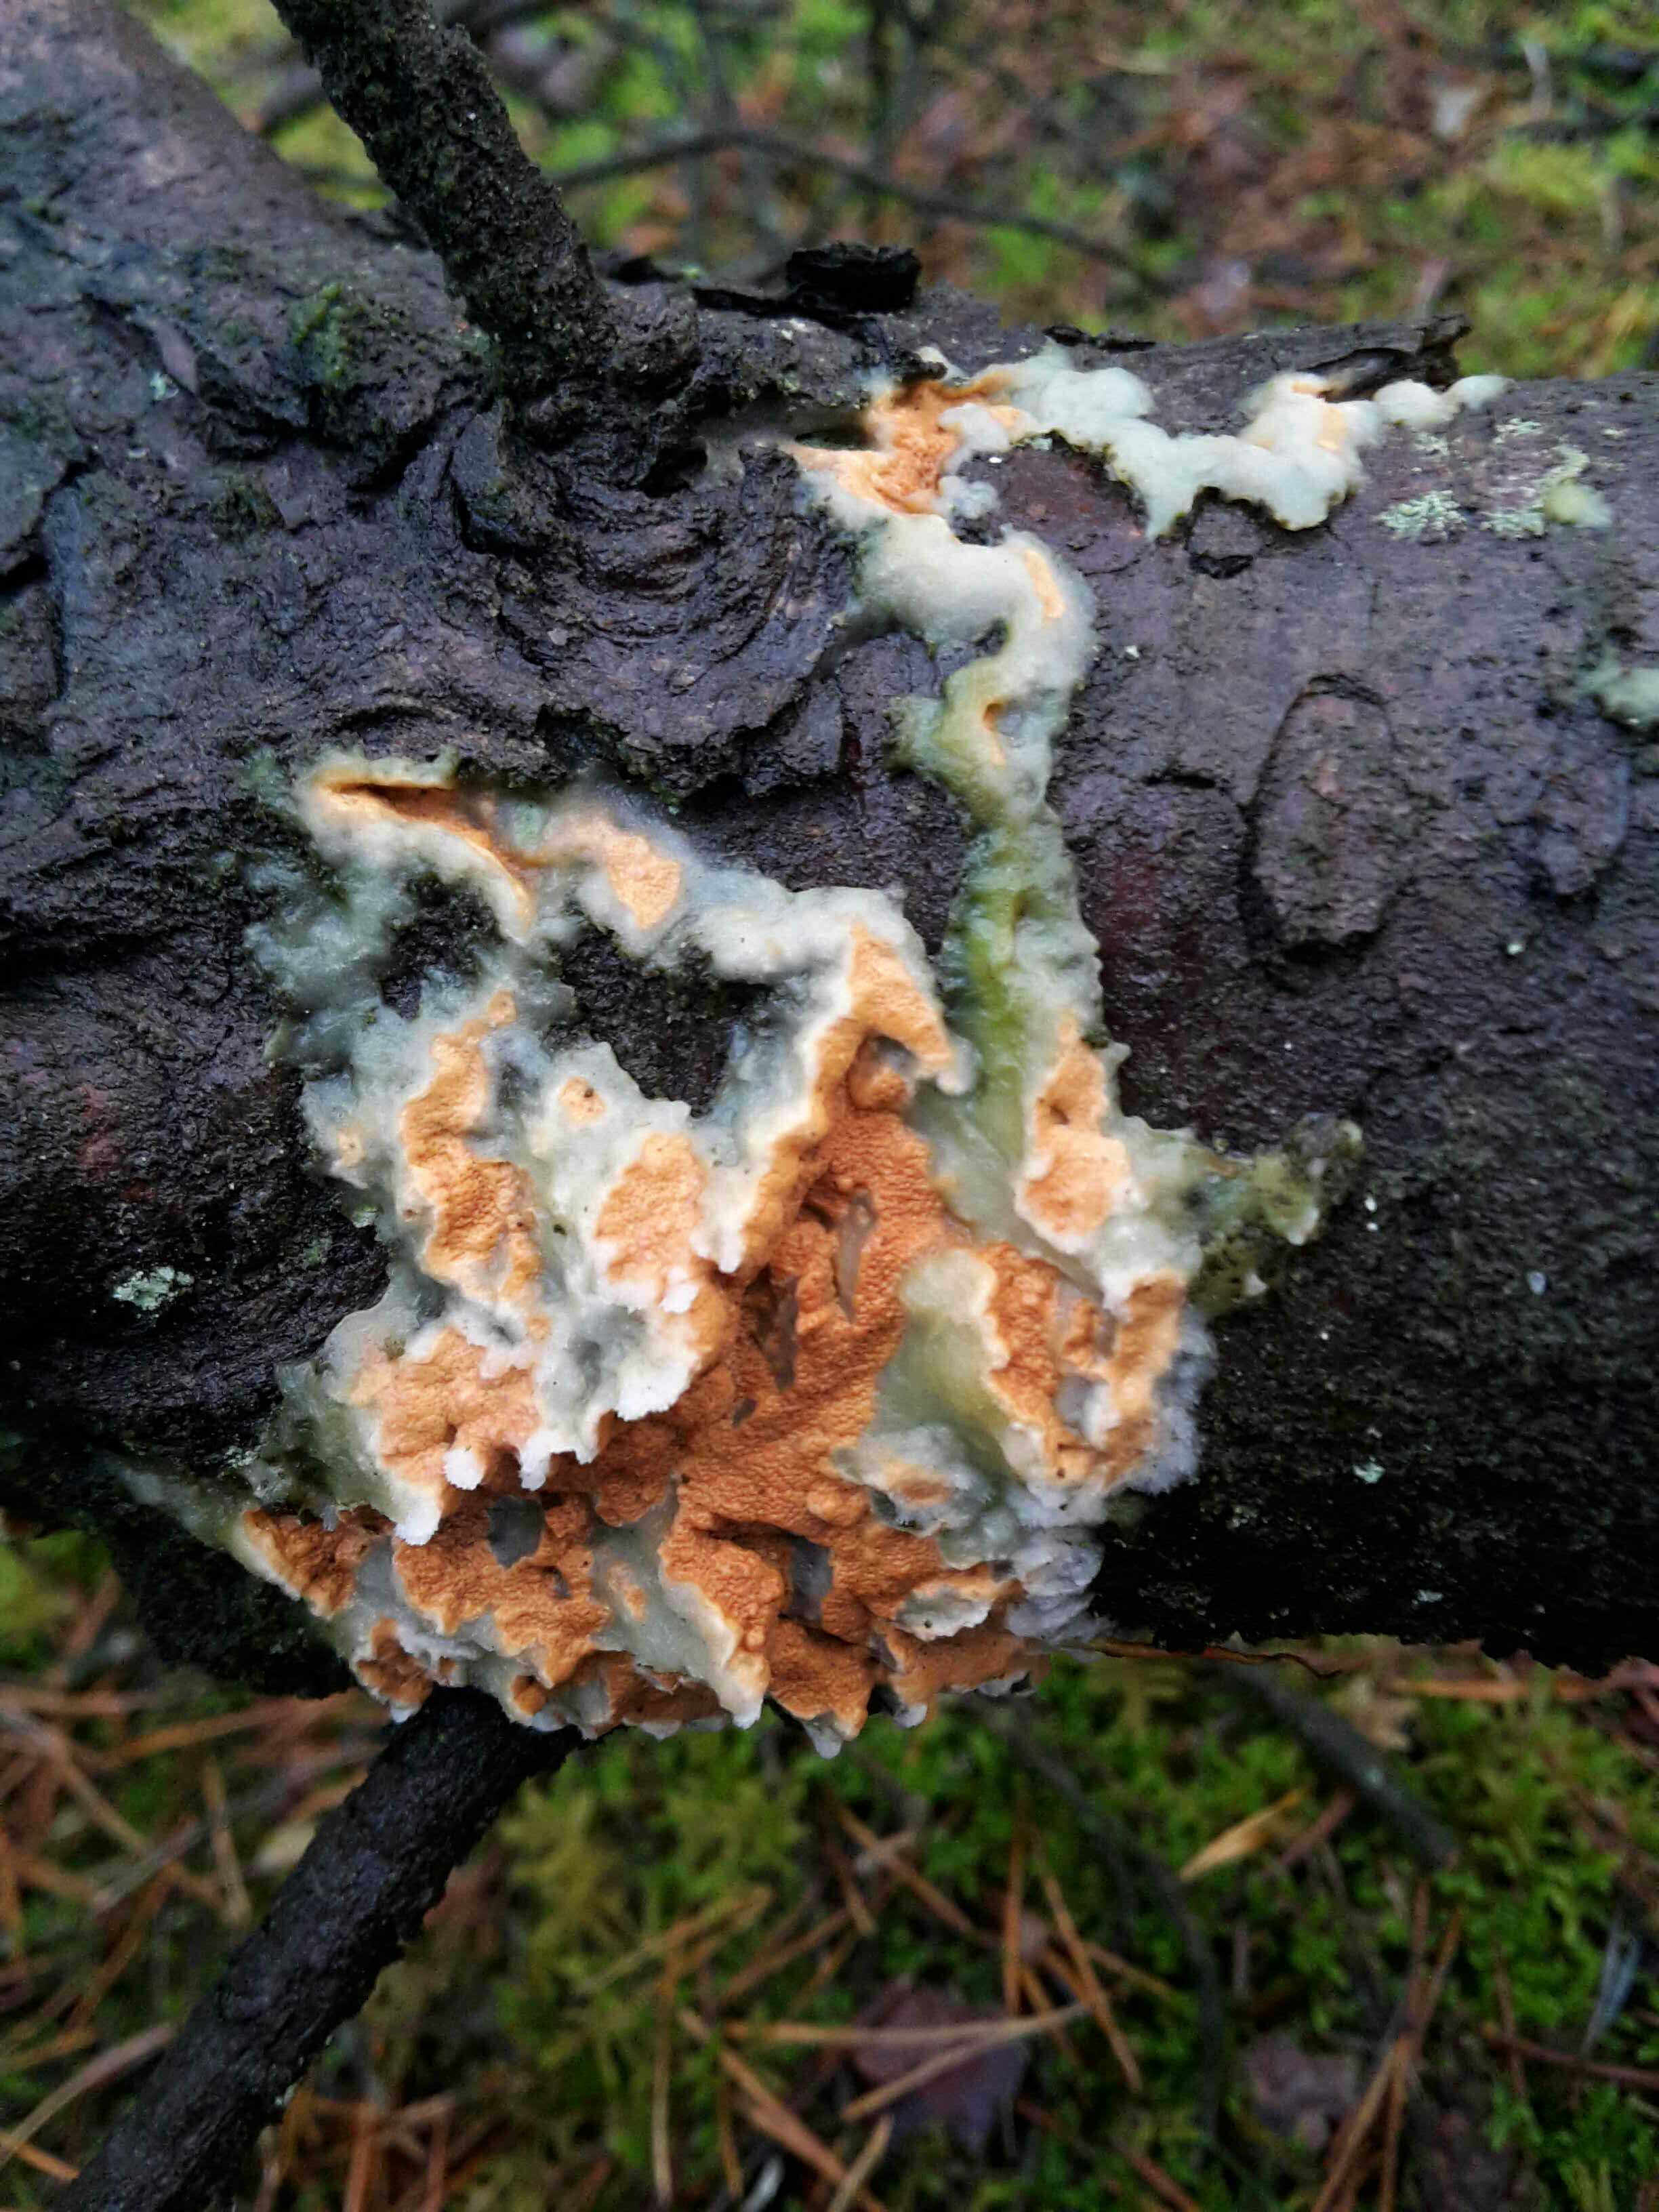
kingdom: Fungi
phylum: Basidiomycota
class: Agaricomycetes
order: Polyporales
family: Irpicaceae
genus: Meruliopsis
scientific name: Meruliopsis taxicola
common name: purpurbrun foldporesvamp
